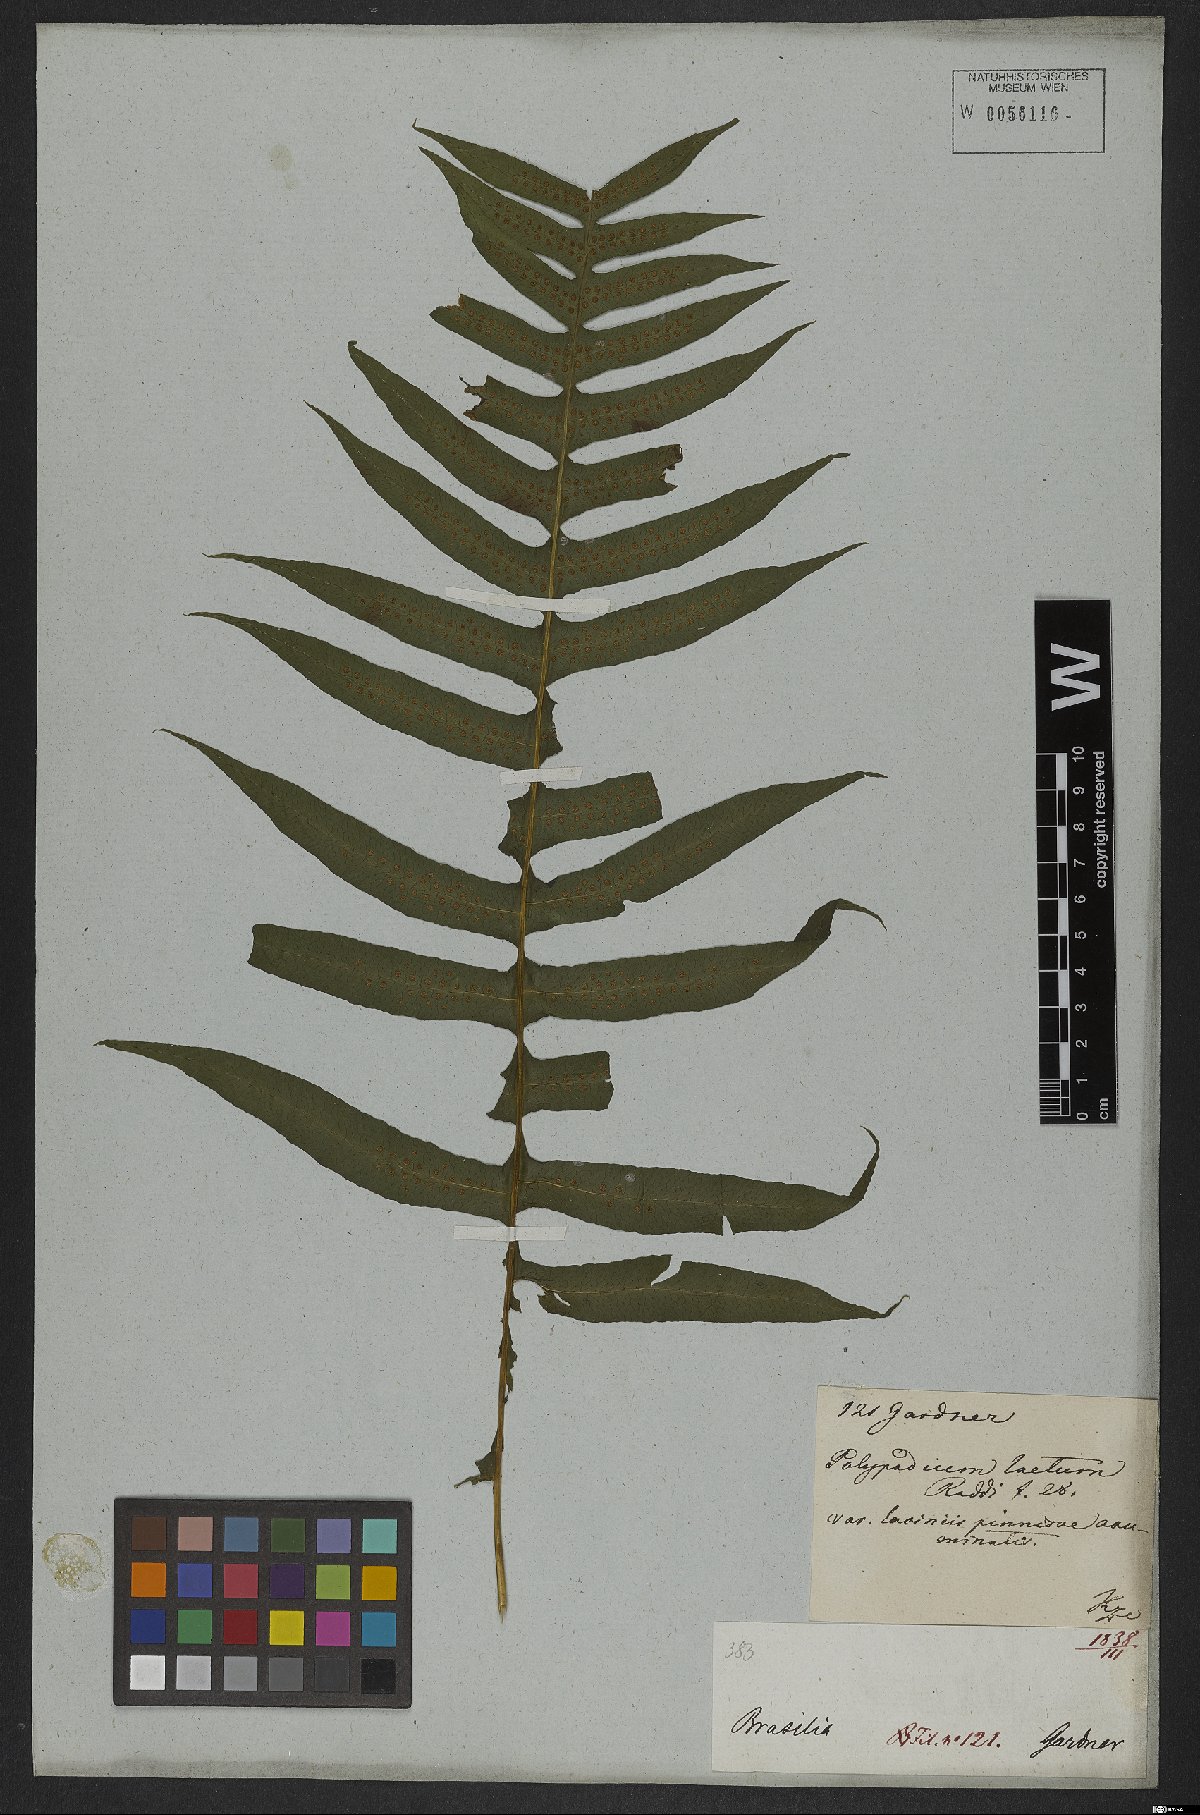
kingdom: Plantae
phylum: Tracheophyta
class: Polypodiopsida
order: Polypodiales
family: Polypodiaceae
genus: Polypodium
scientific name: Polypodium plesiosorum
